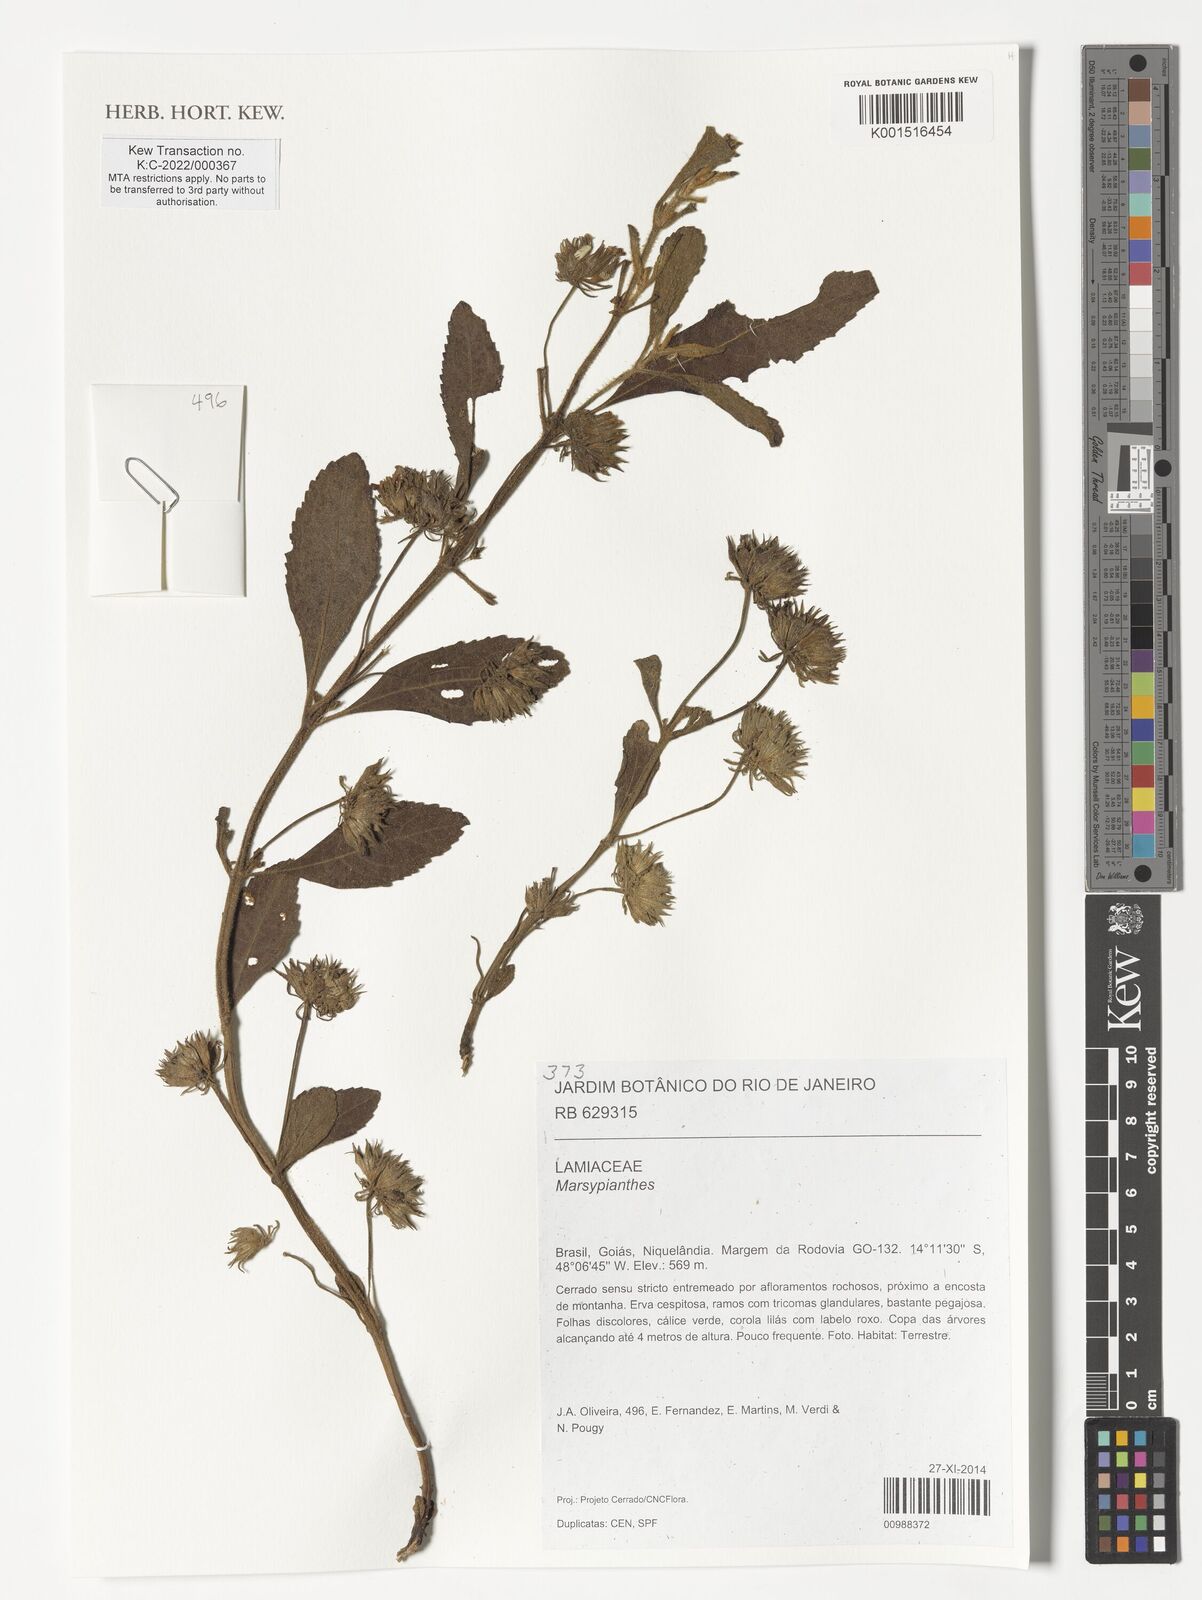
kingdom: Plantae
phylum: Tracheophyta
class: Magnoliopsida
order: Lamiales
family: Lamiaceae
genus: Marsypianthes
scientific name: Marsypianthes
